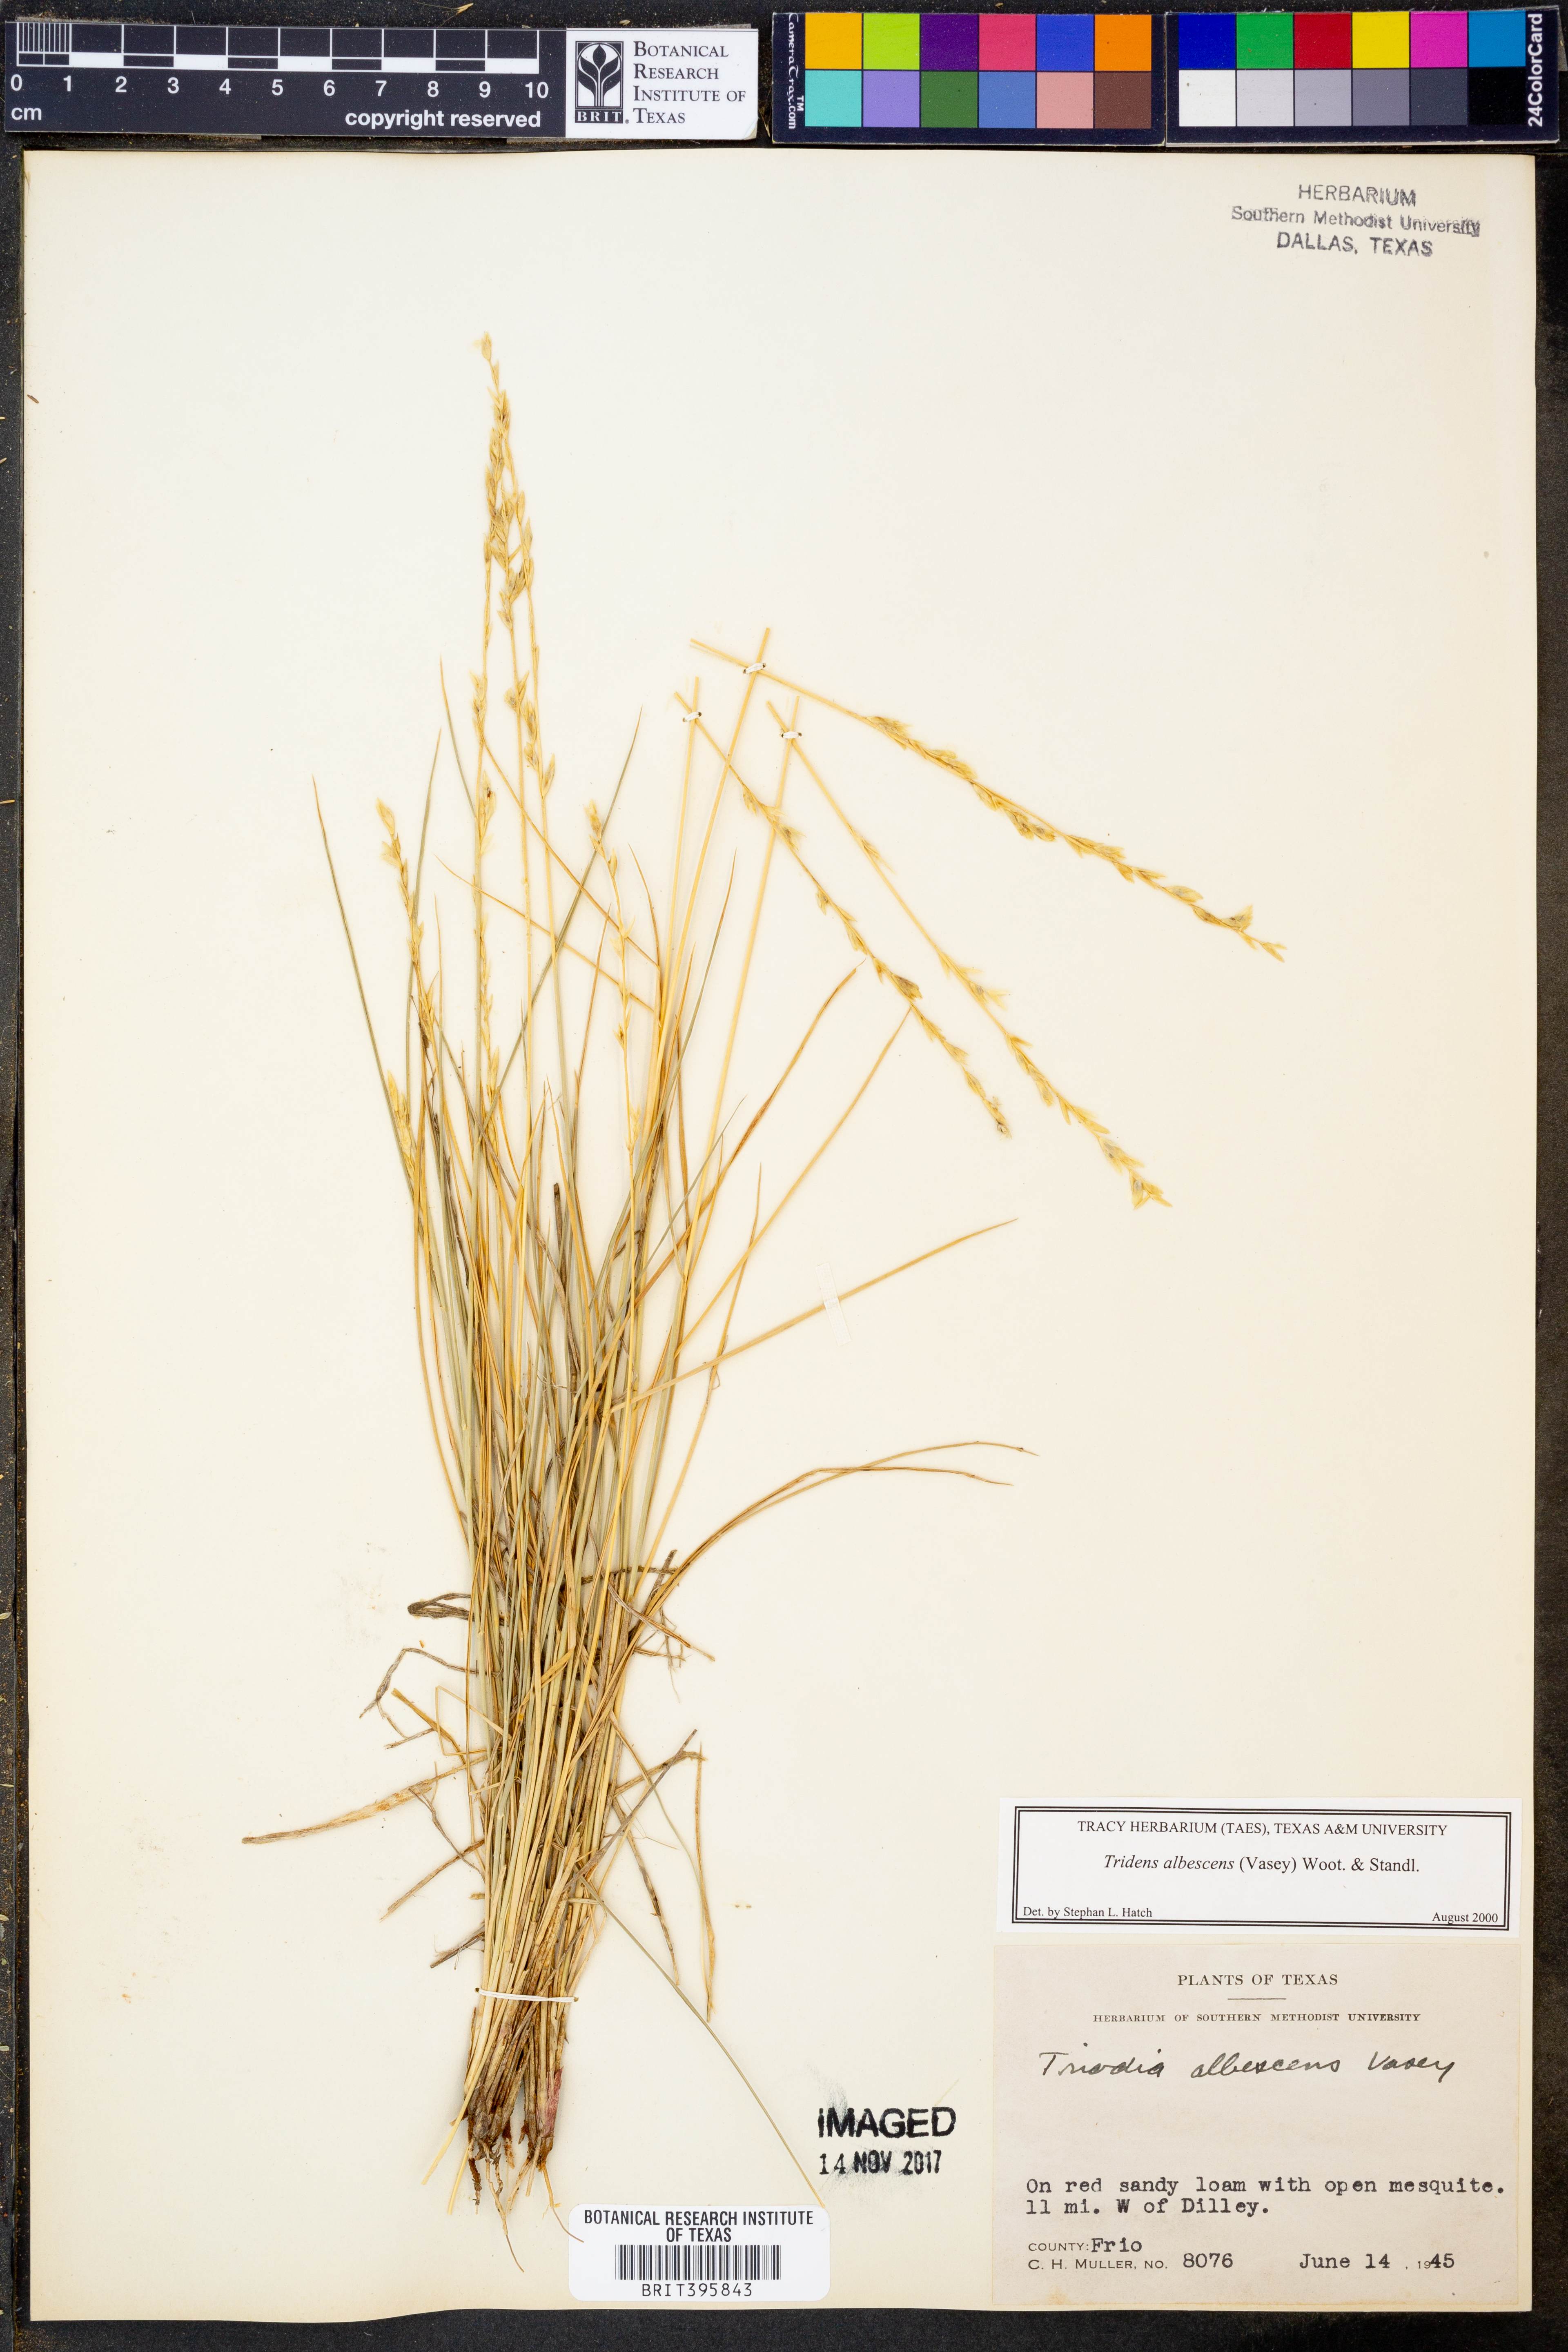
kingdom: Plantae
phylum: Tracheophyta
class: Liliopsida
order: Poales
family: Poaceae
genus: Tridens
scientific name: Tridens albescens
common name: White tridens
